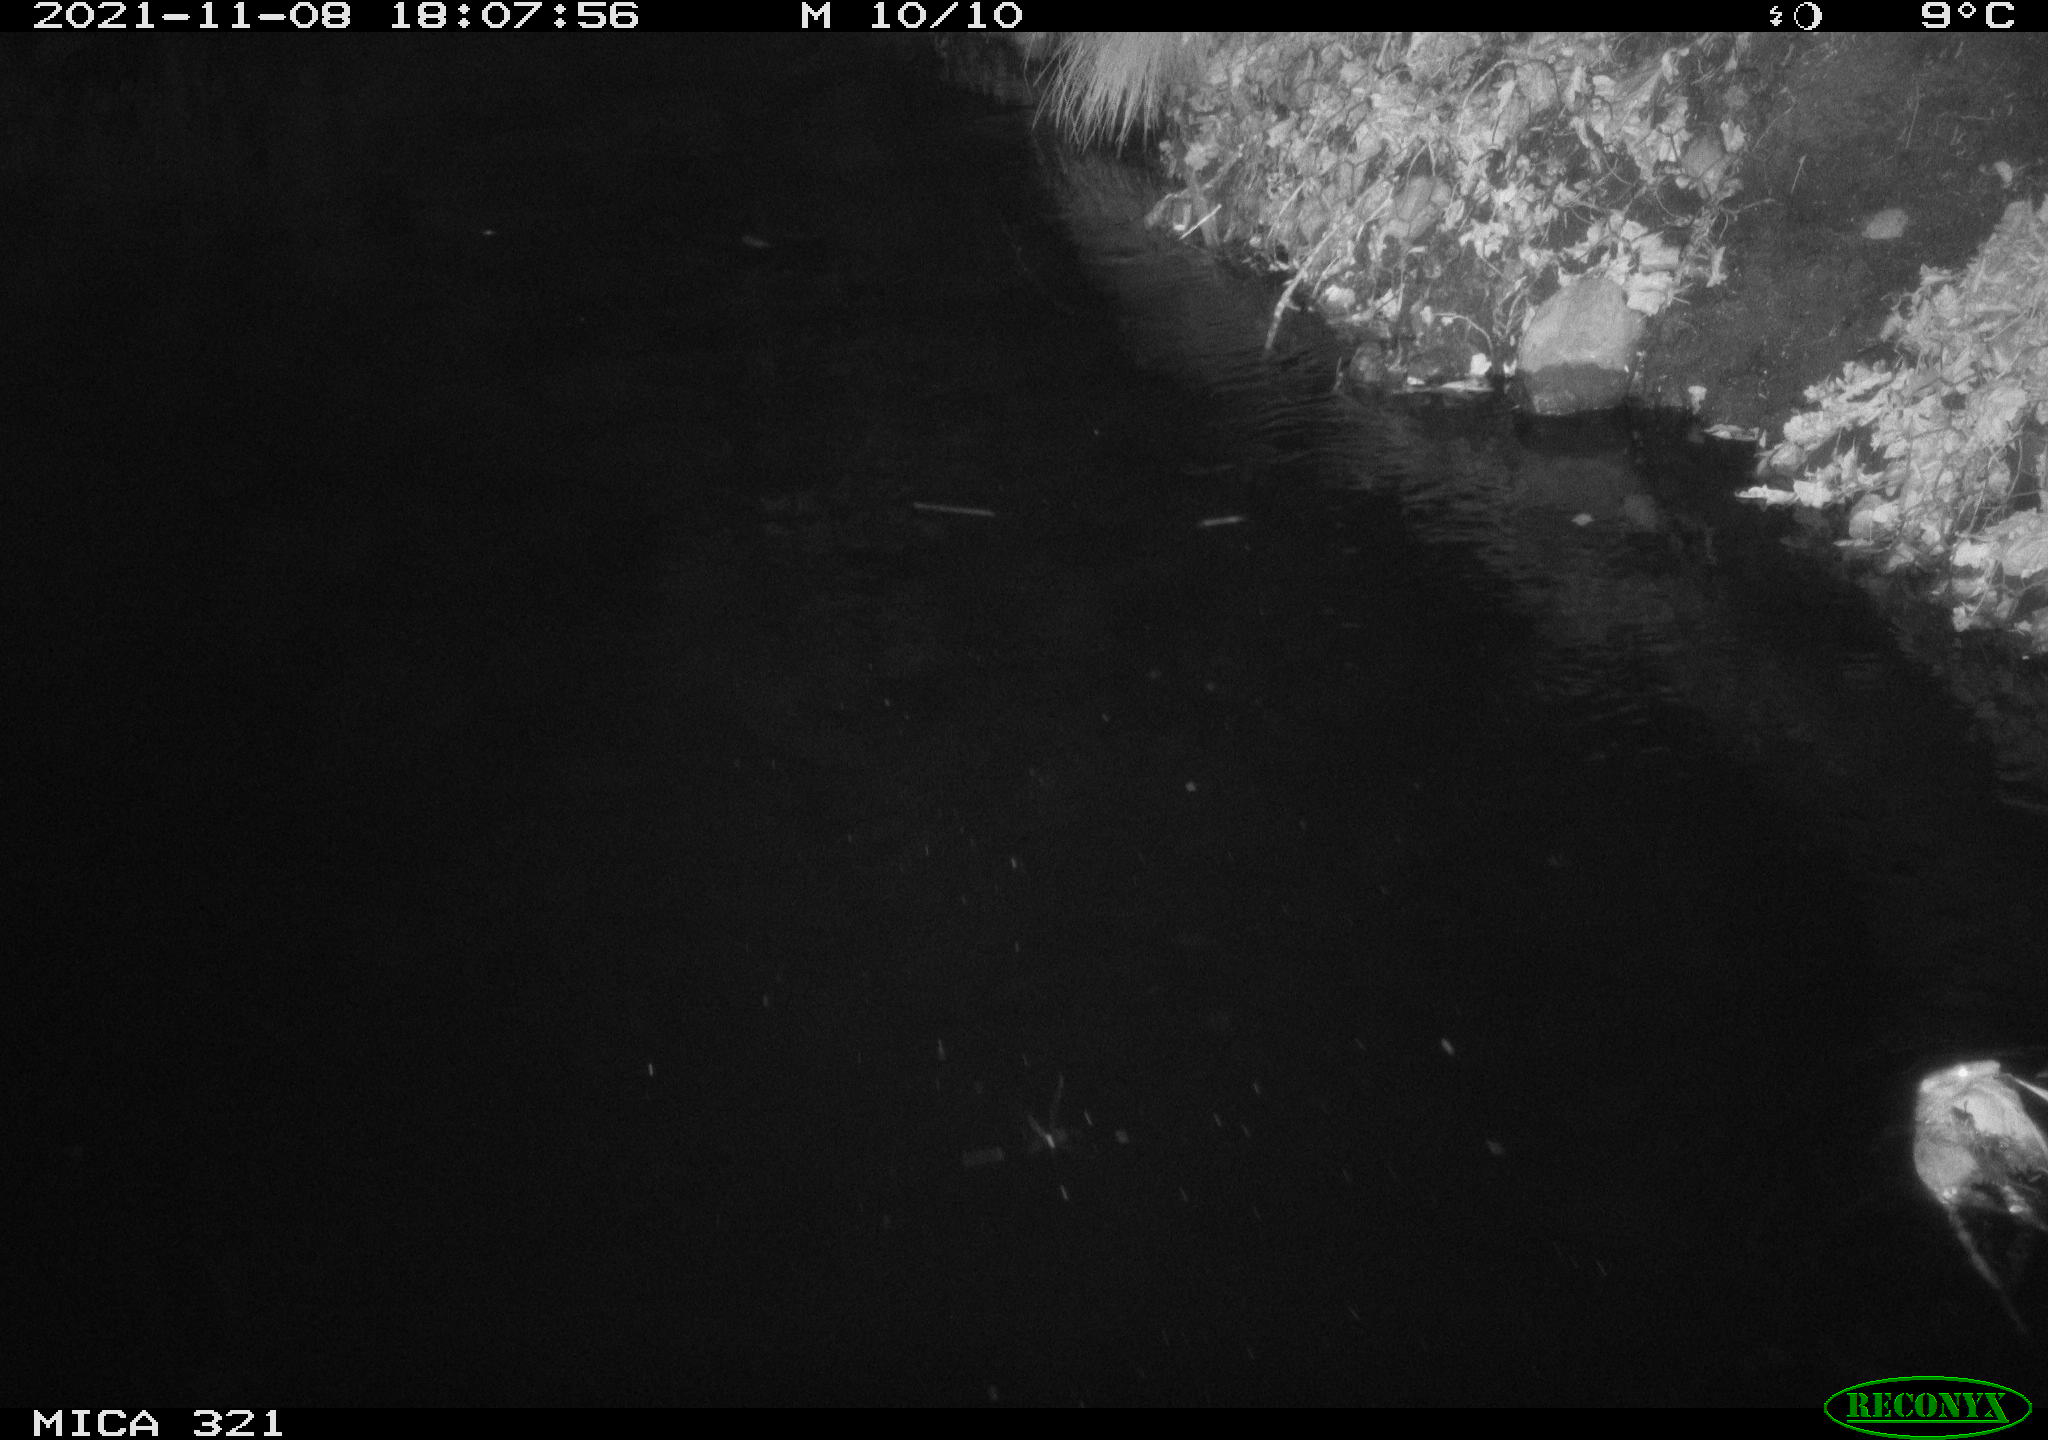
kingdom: Animalia
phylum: Chordata
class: Mammalia
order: Rodentia
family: Muridae
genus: Rattus
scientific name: Rattus norvegicus
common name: Brown rat
